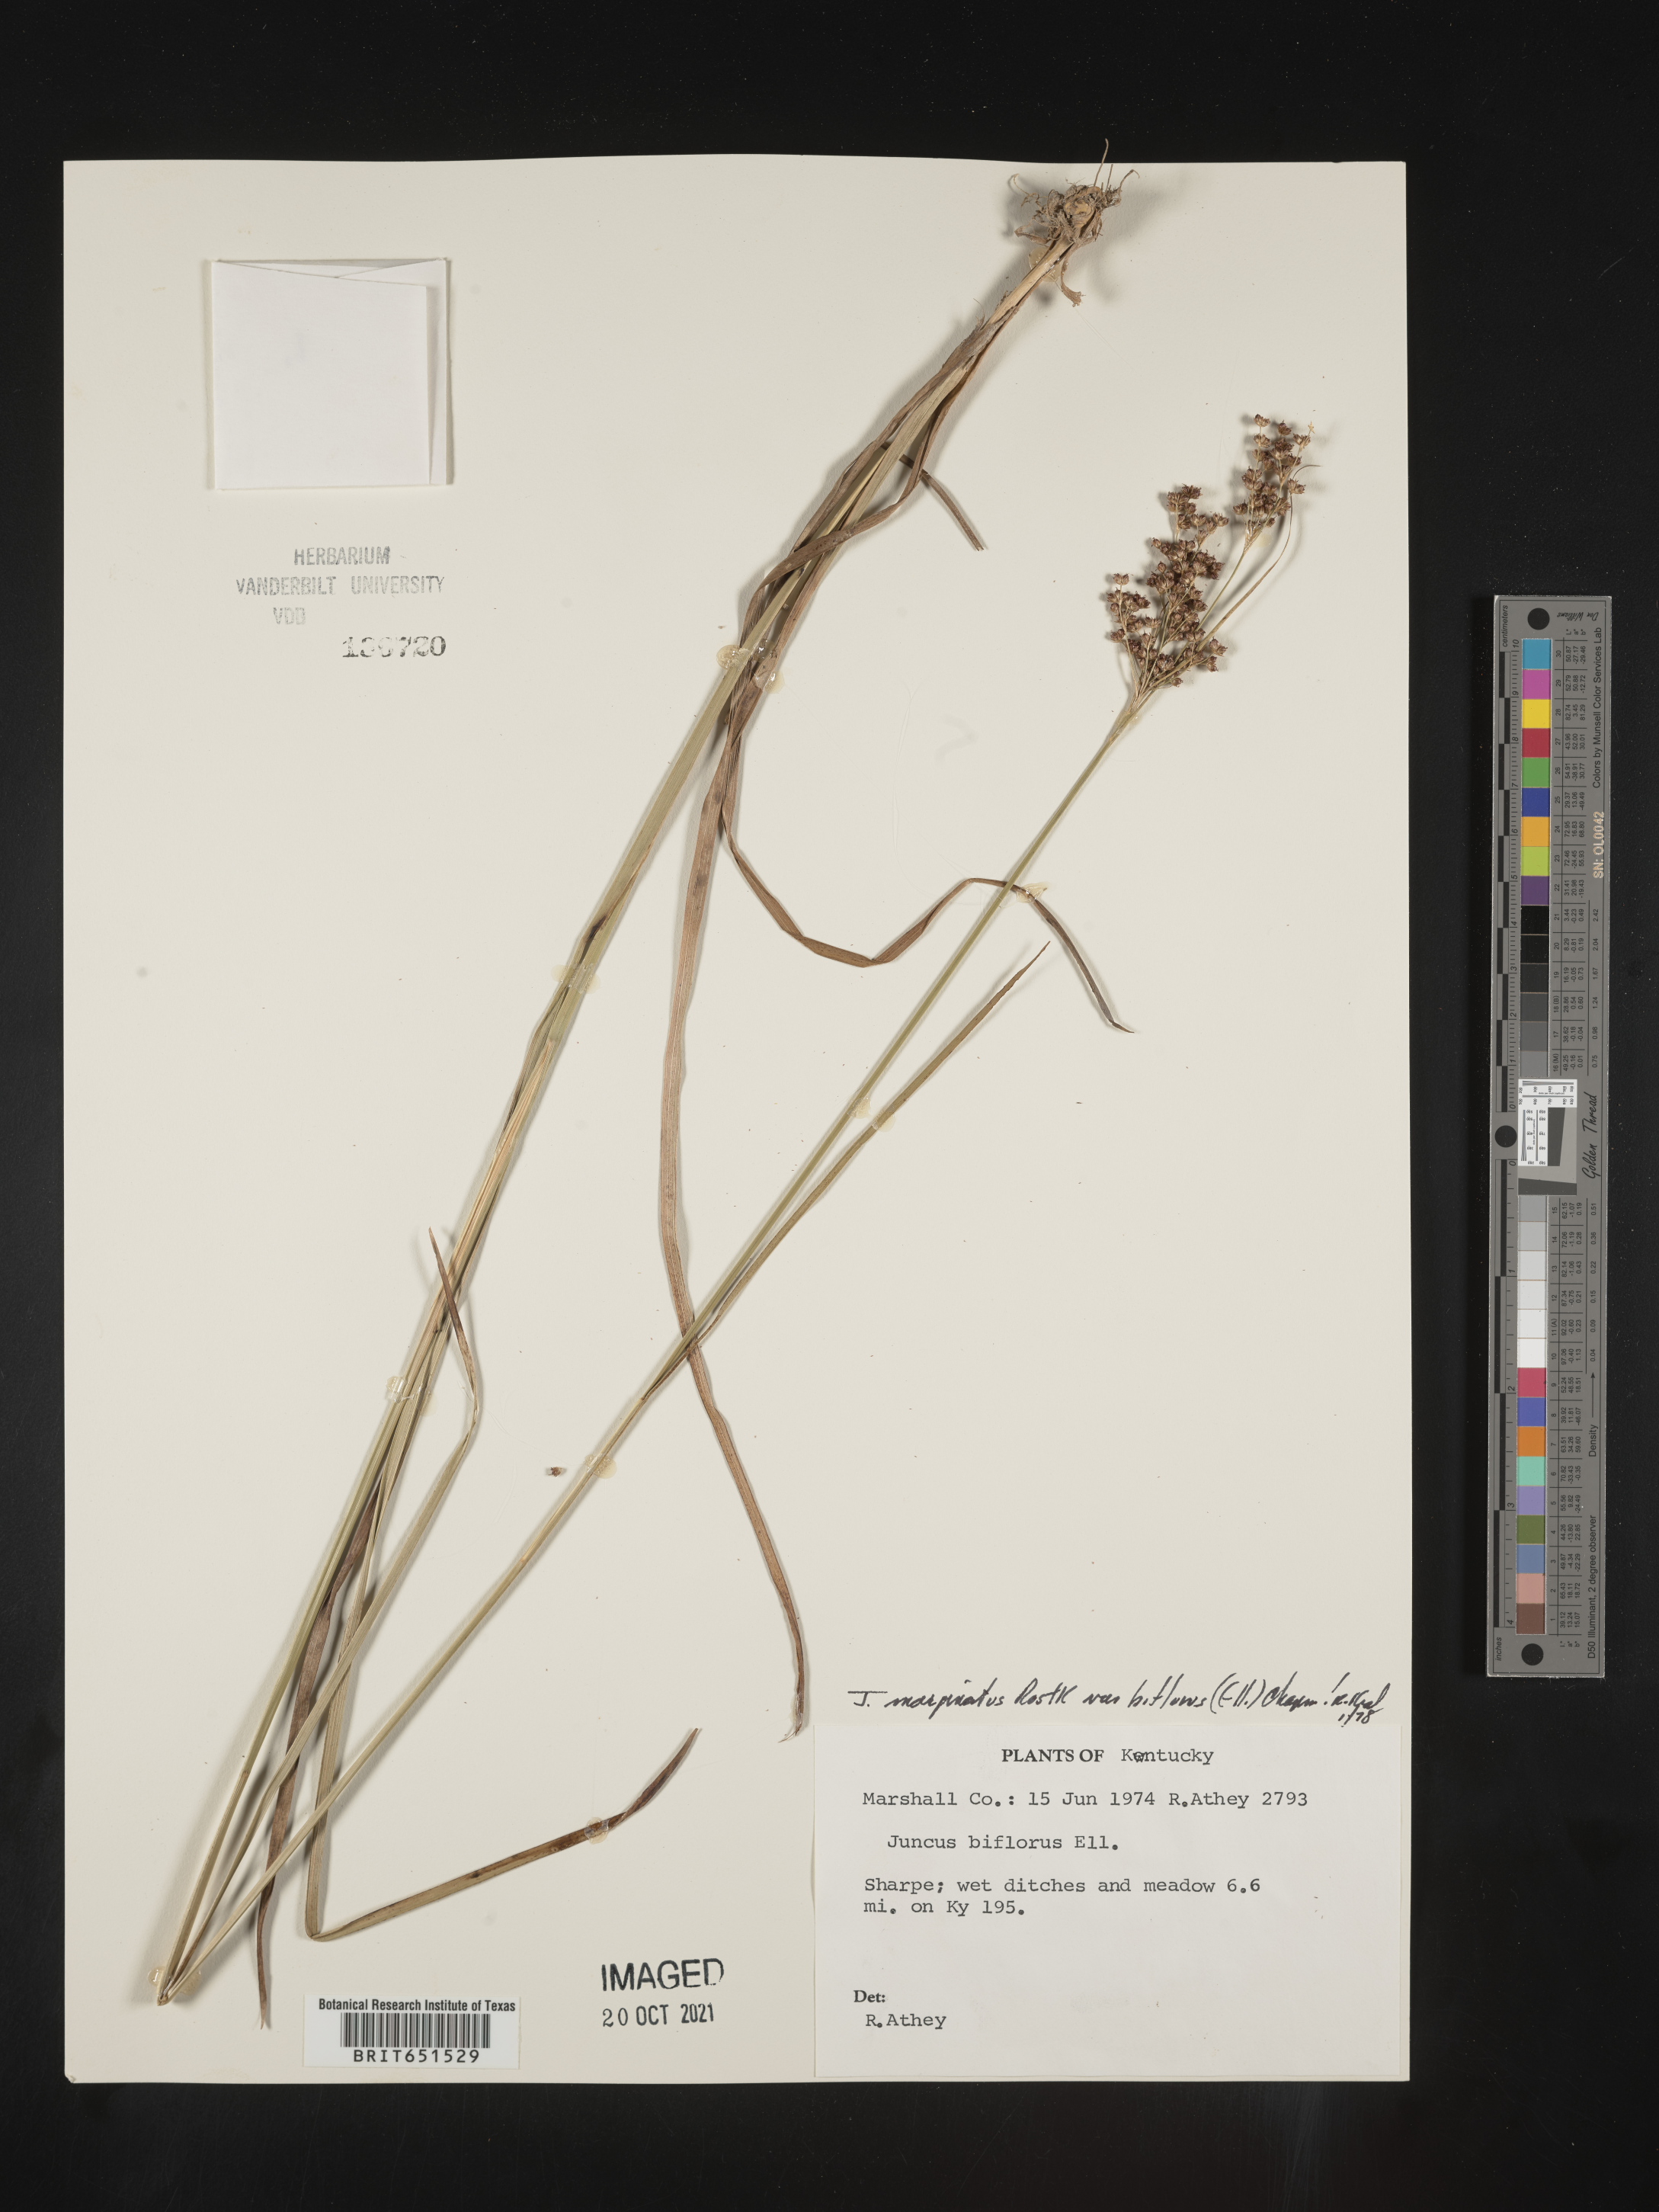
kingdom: Plantae
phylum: Tracheophyta
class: Liliopsida
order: Poales
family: Juncaceae
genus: Juncus
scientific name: Juncus biflorus
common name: Two-flowered rush
